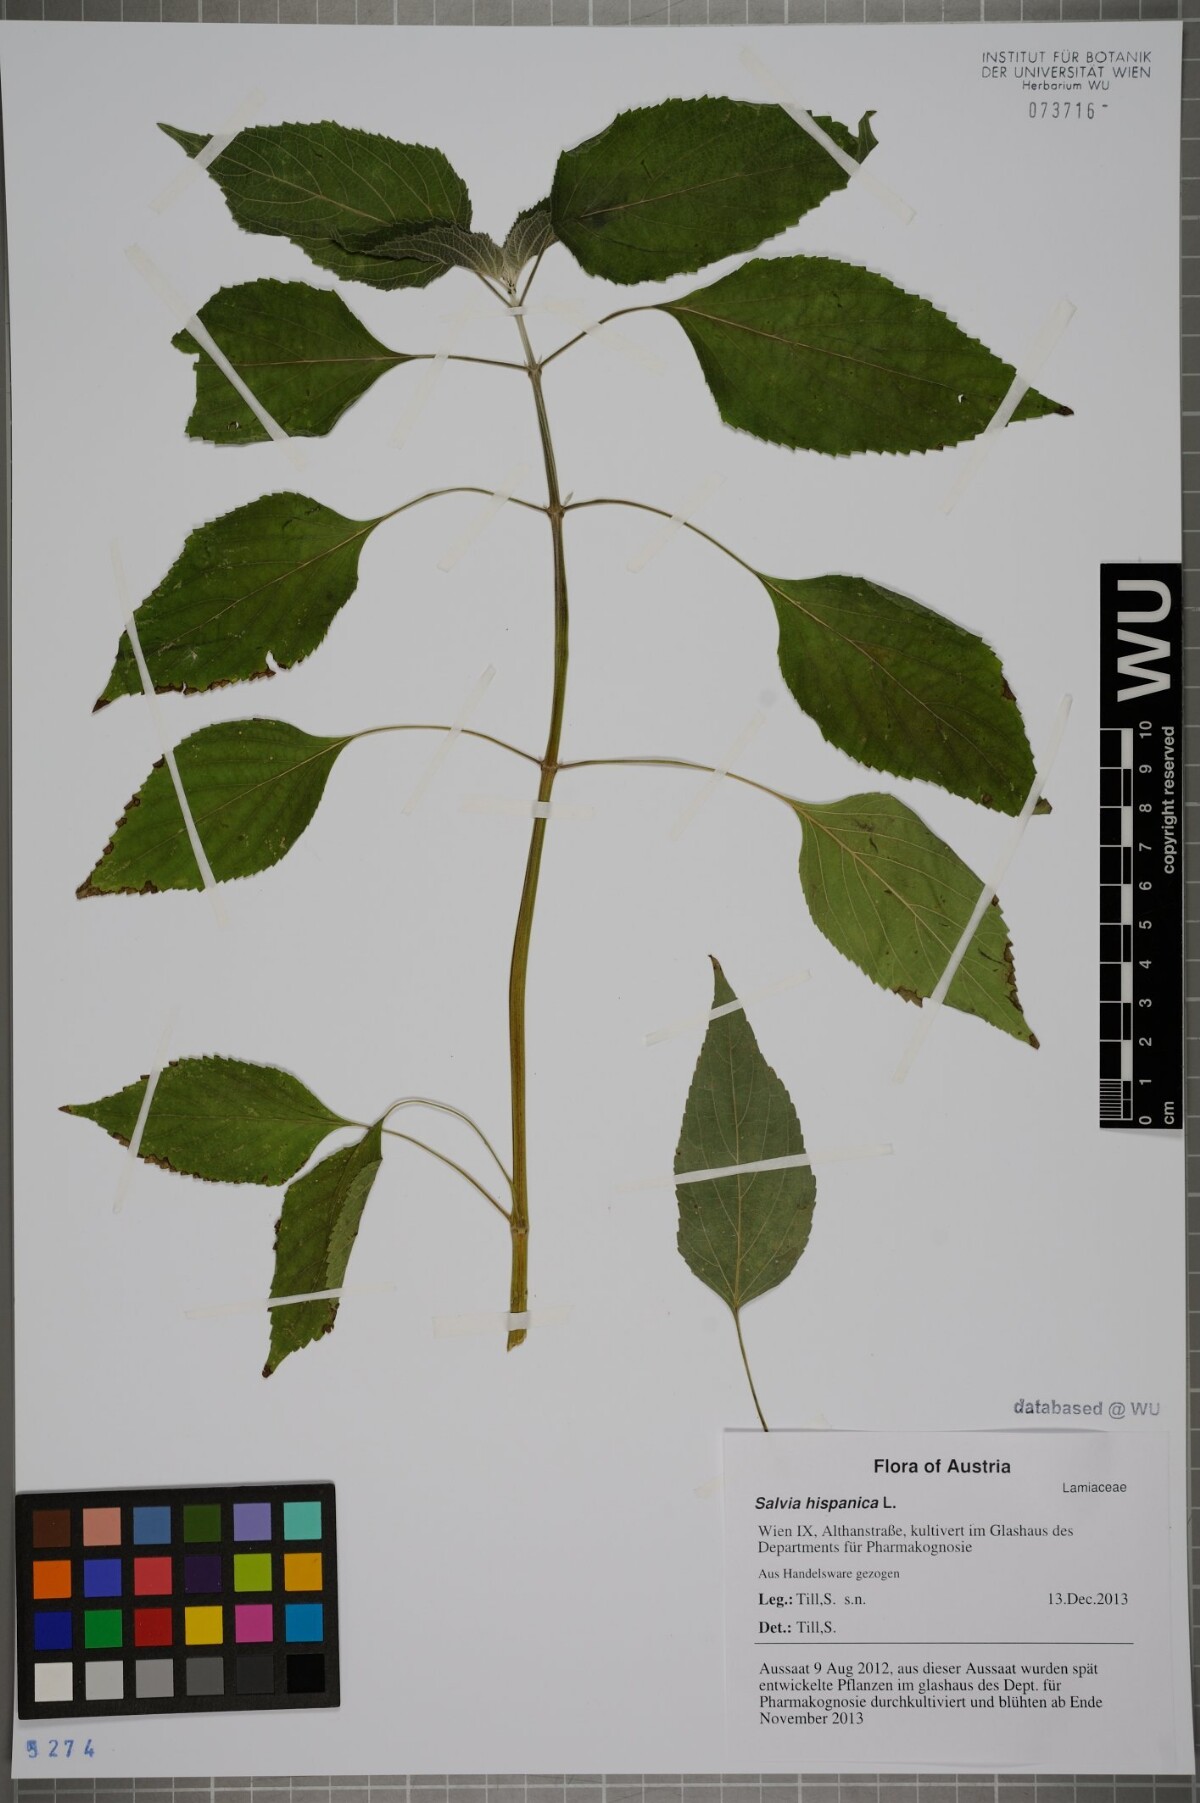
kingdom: Plantae
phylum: Tracheophyta
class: Magnoliopsida
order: Lamiales
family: Lamiaceae
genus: Salvia
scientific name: Salvia hispanica
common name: Chia
